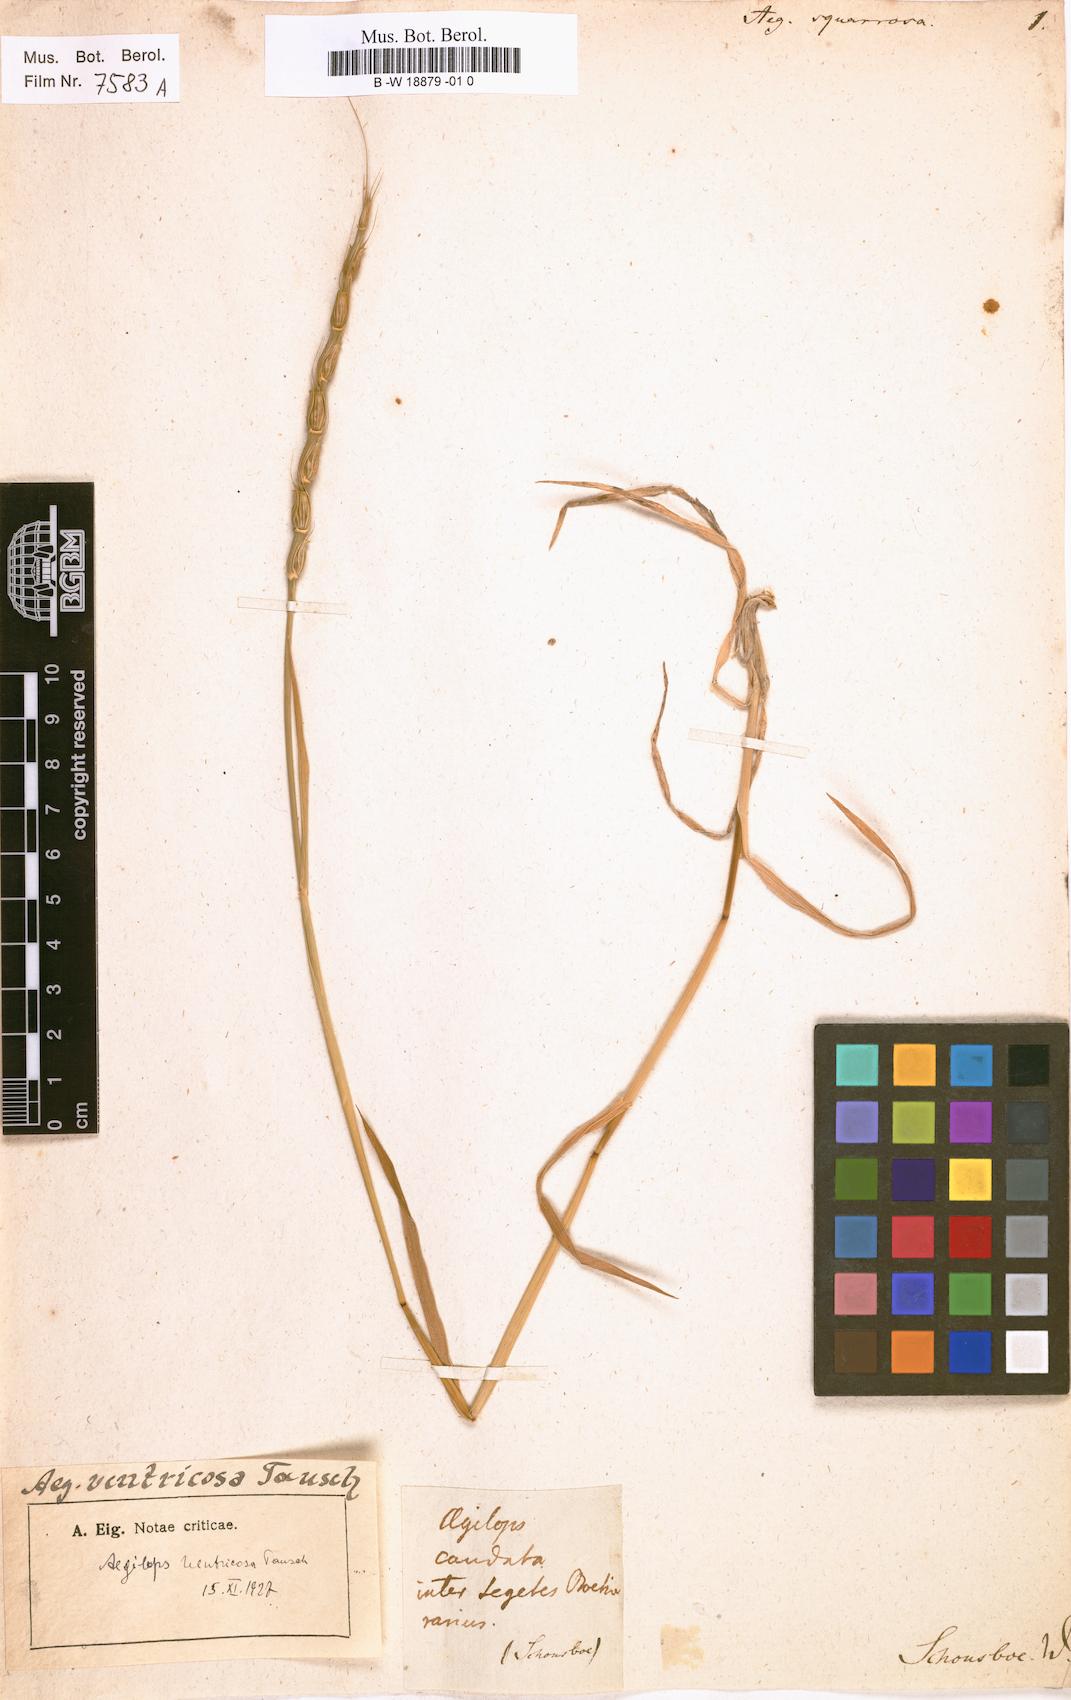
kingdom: Plantae
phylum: Tracheophyta
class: Liliopsida
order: Poales
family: Poaceae
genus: Aegilops
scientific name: Aegilops triuncialis
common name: Barb goat grass
